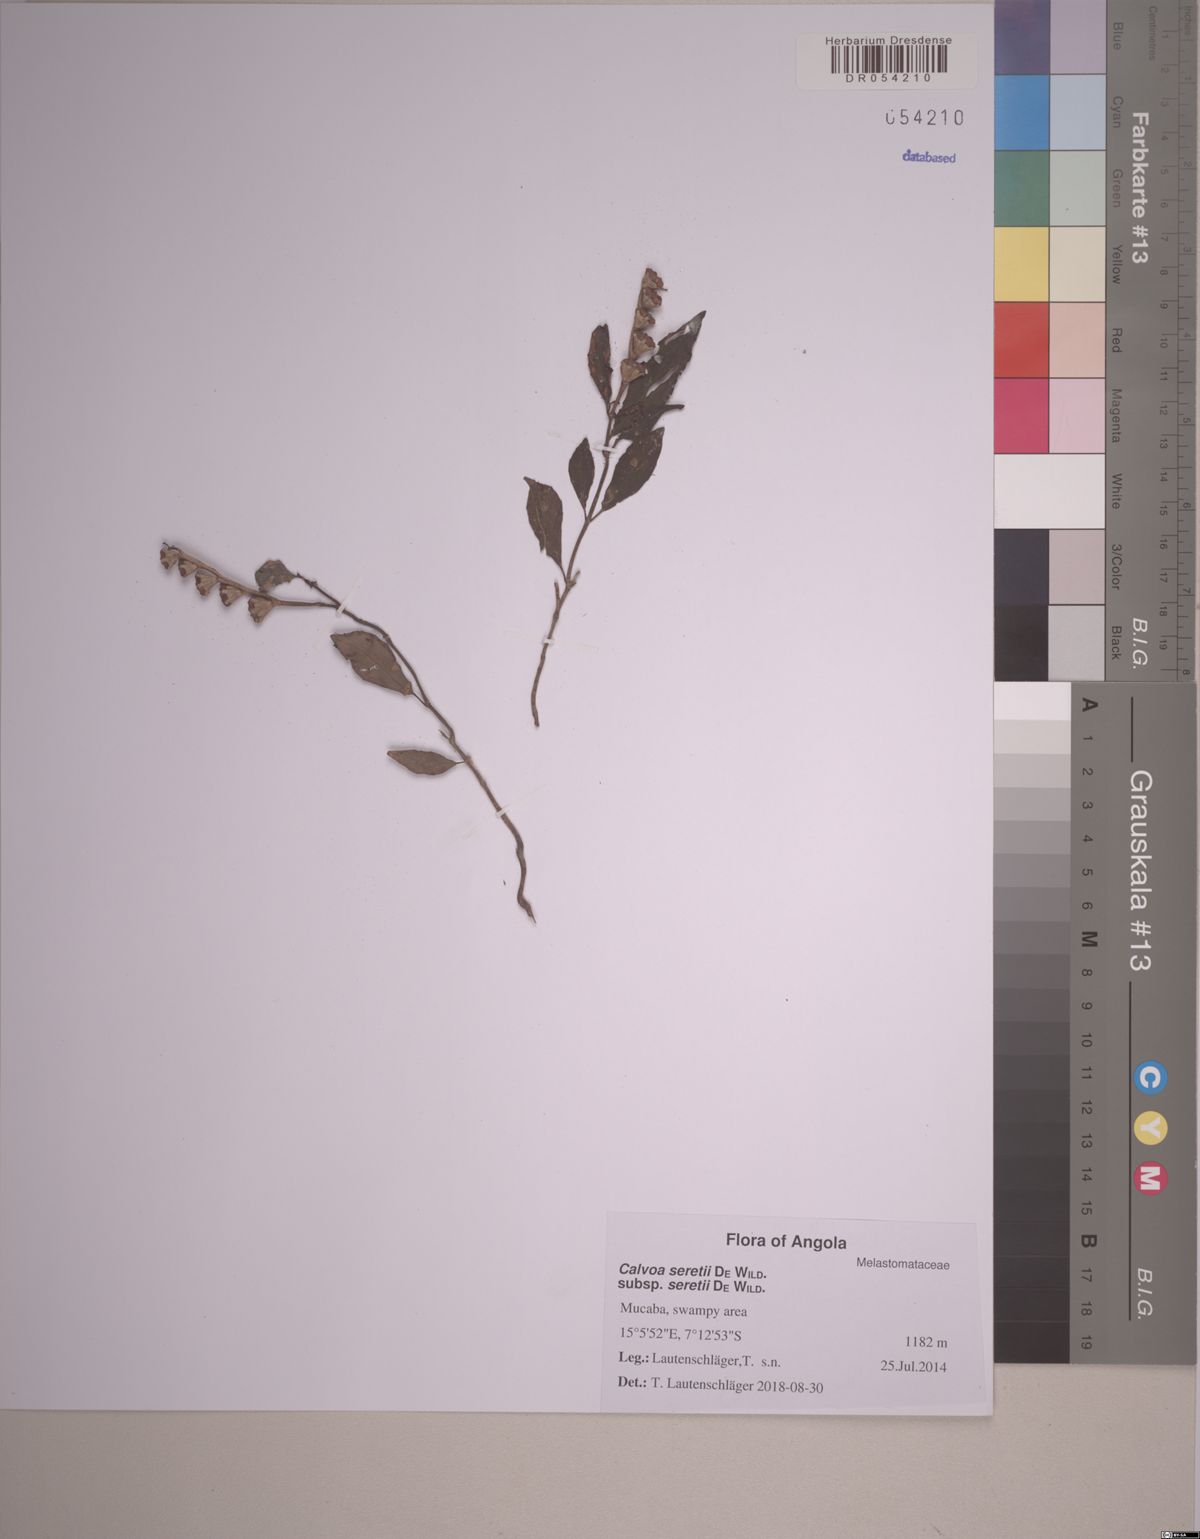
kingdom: Plantae
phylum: Tracheophyta
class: Magnoliopsida
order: Myrtales
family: Melastomataceae
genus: Calvoa
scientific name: Calvoa seretii
